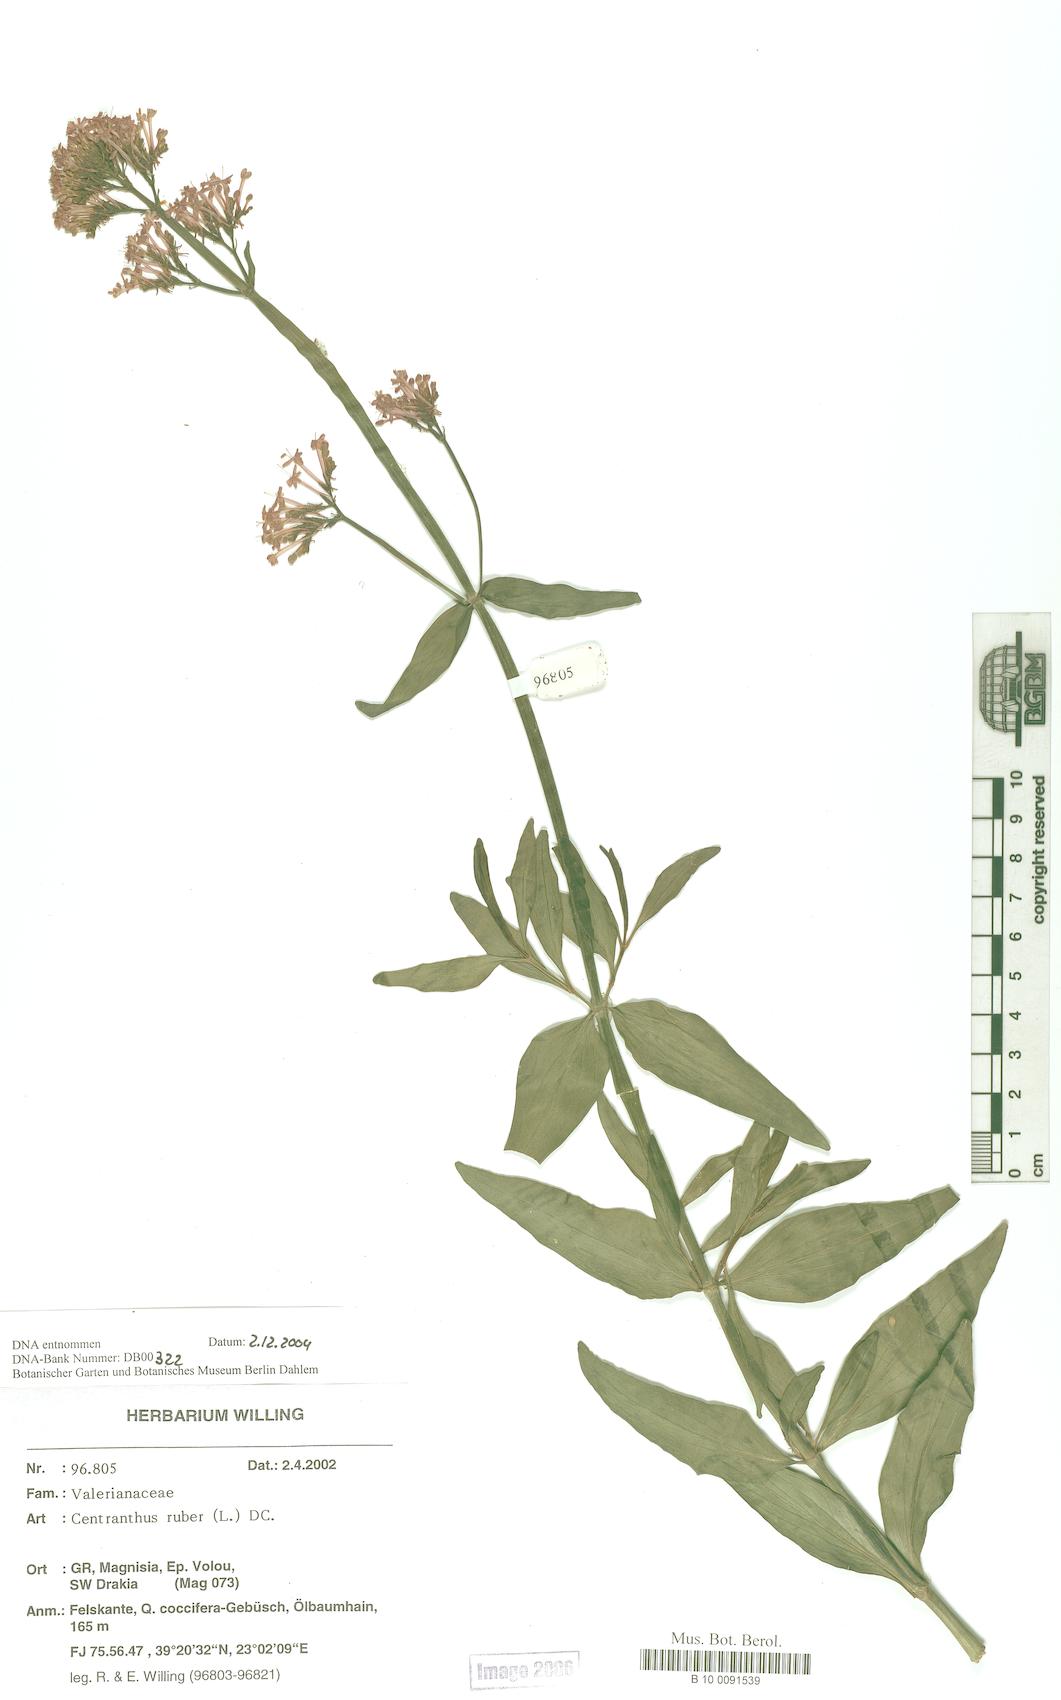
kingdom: Plantae
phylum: Tracheophyta
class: Magnoliopsida
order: Dipsacales
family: Caprifoliaceae
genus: Centranthus
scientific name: Centranthus ruber
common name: Red valerian
